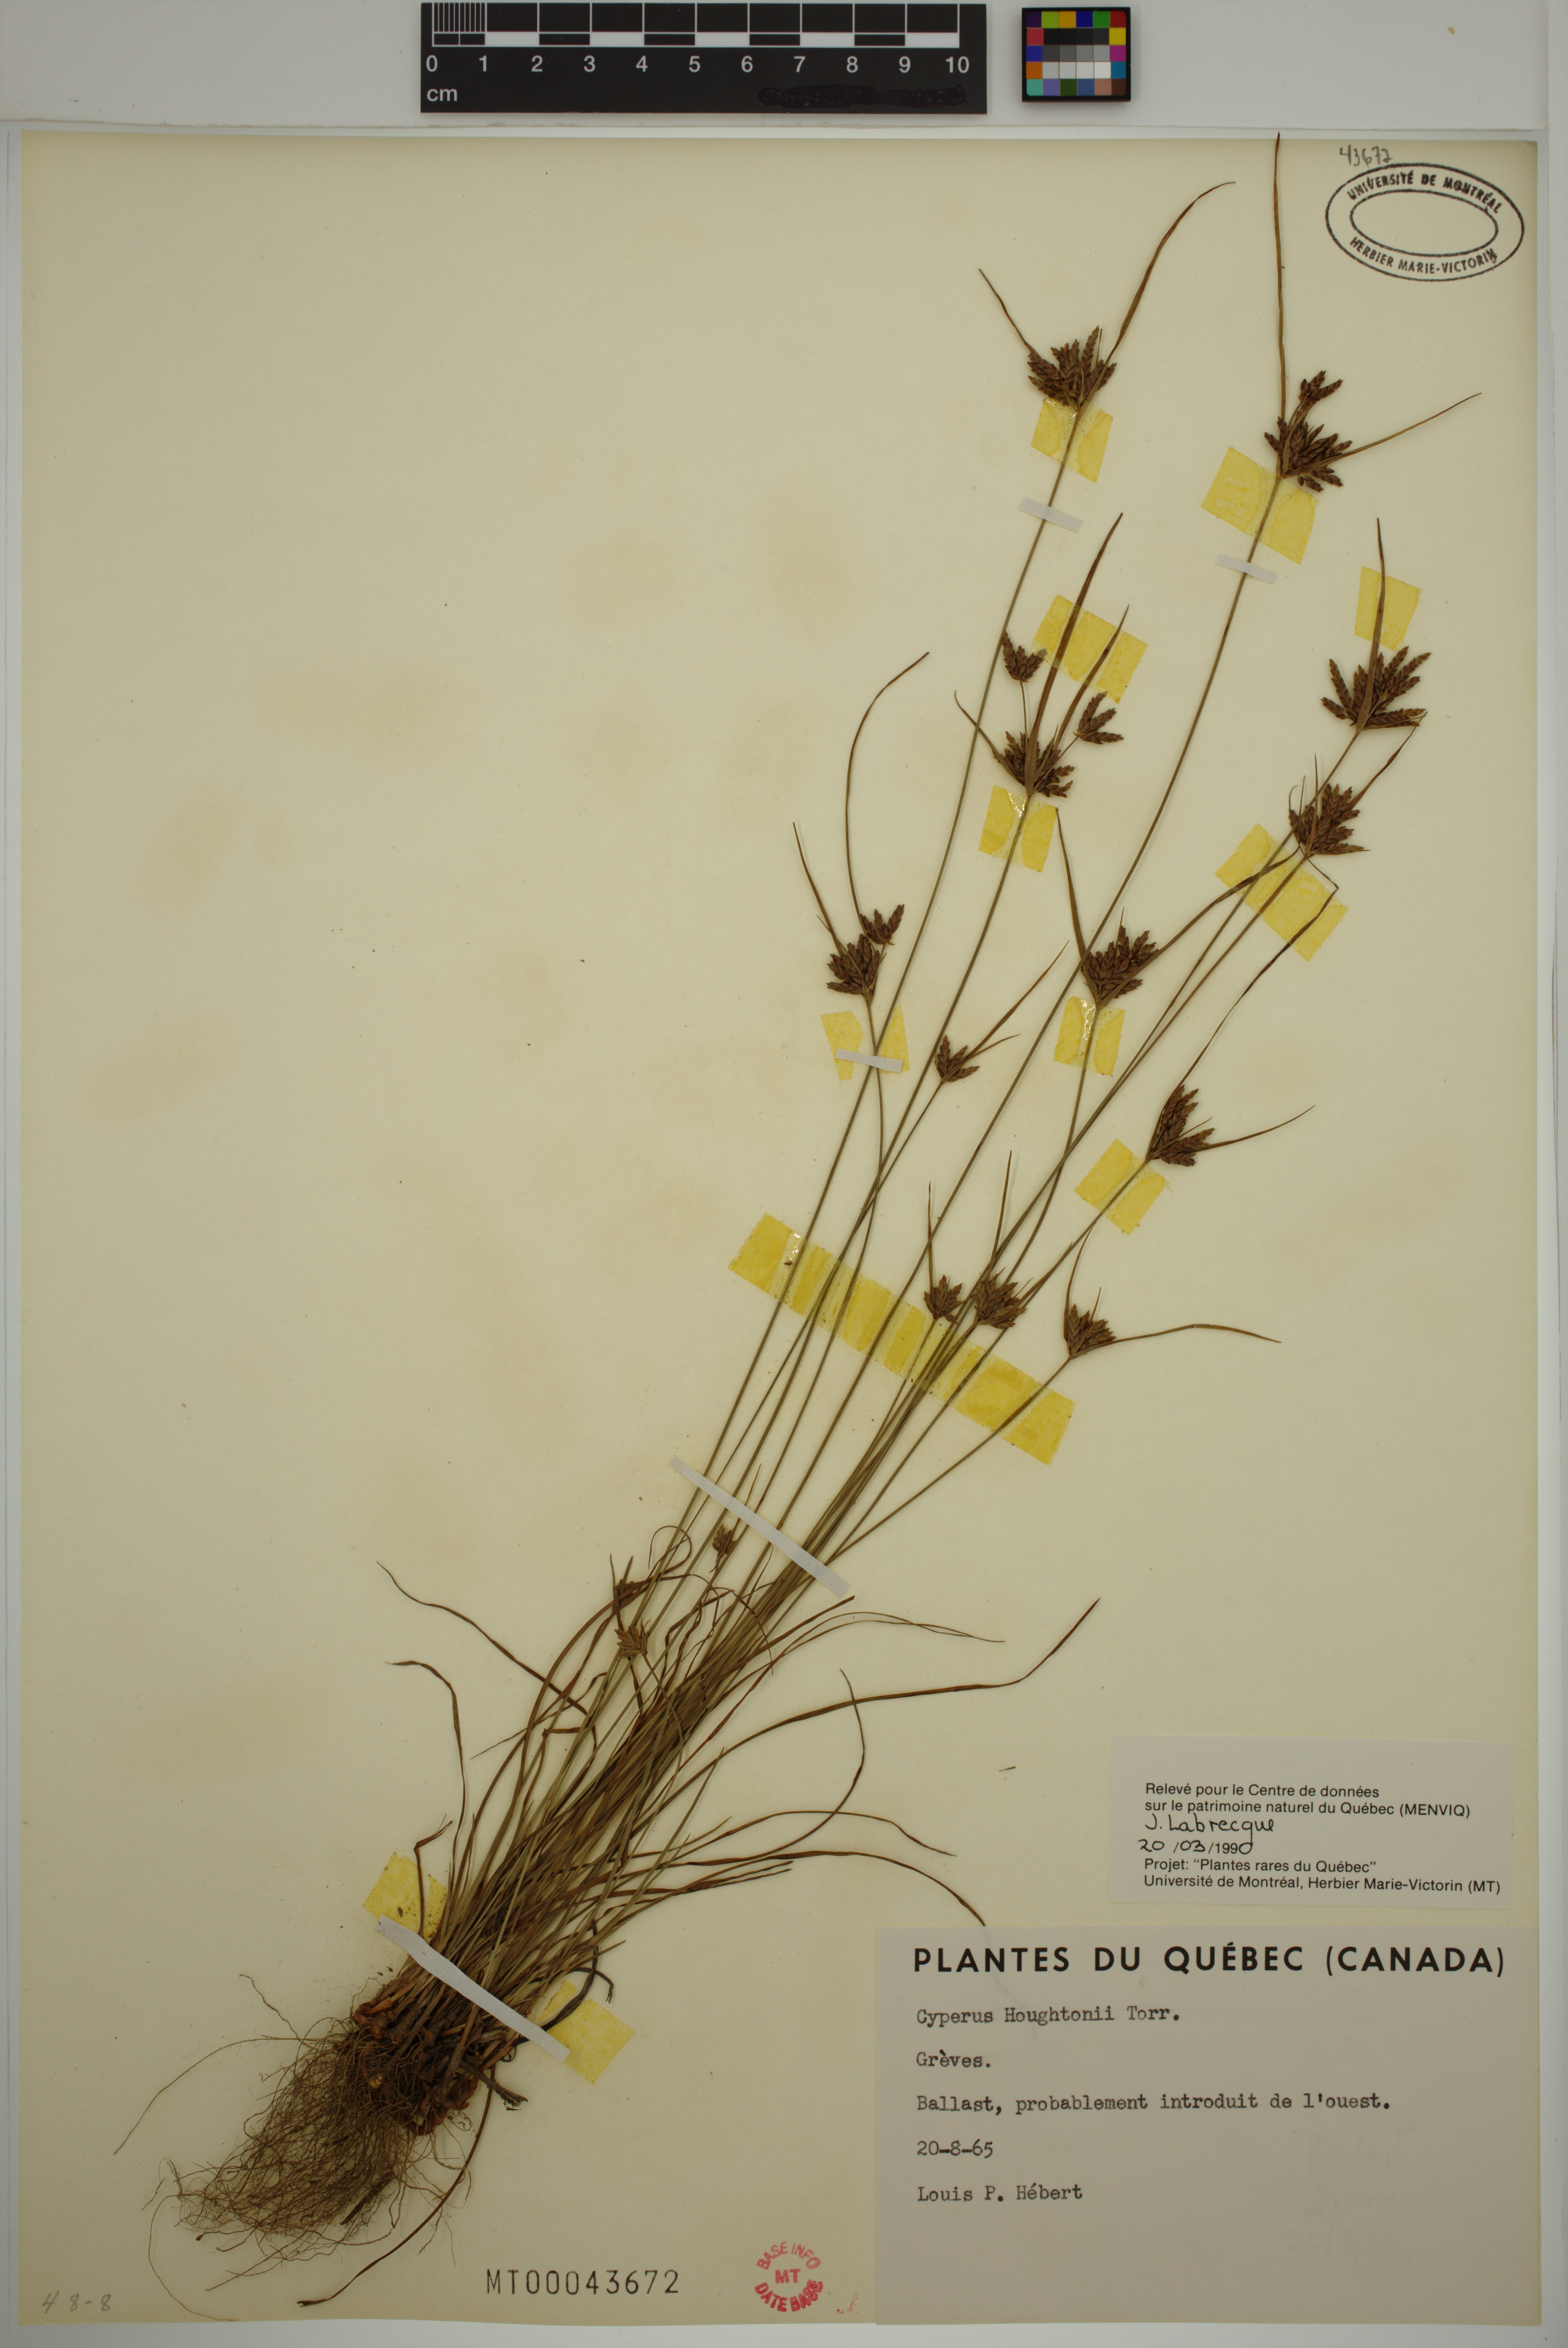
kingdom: Plantae
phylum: Tracheophyta
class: Liliopsida
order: Poales
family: Cyperaceae
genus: Cyperus
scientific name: Cyperus houghtonii
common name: Houghton's cyperus
